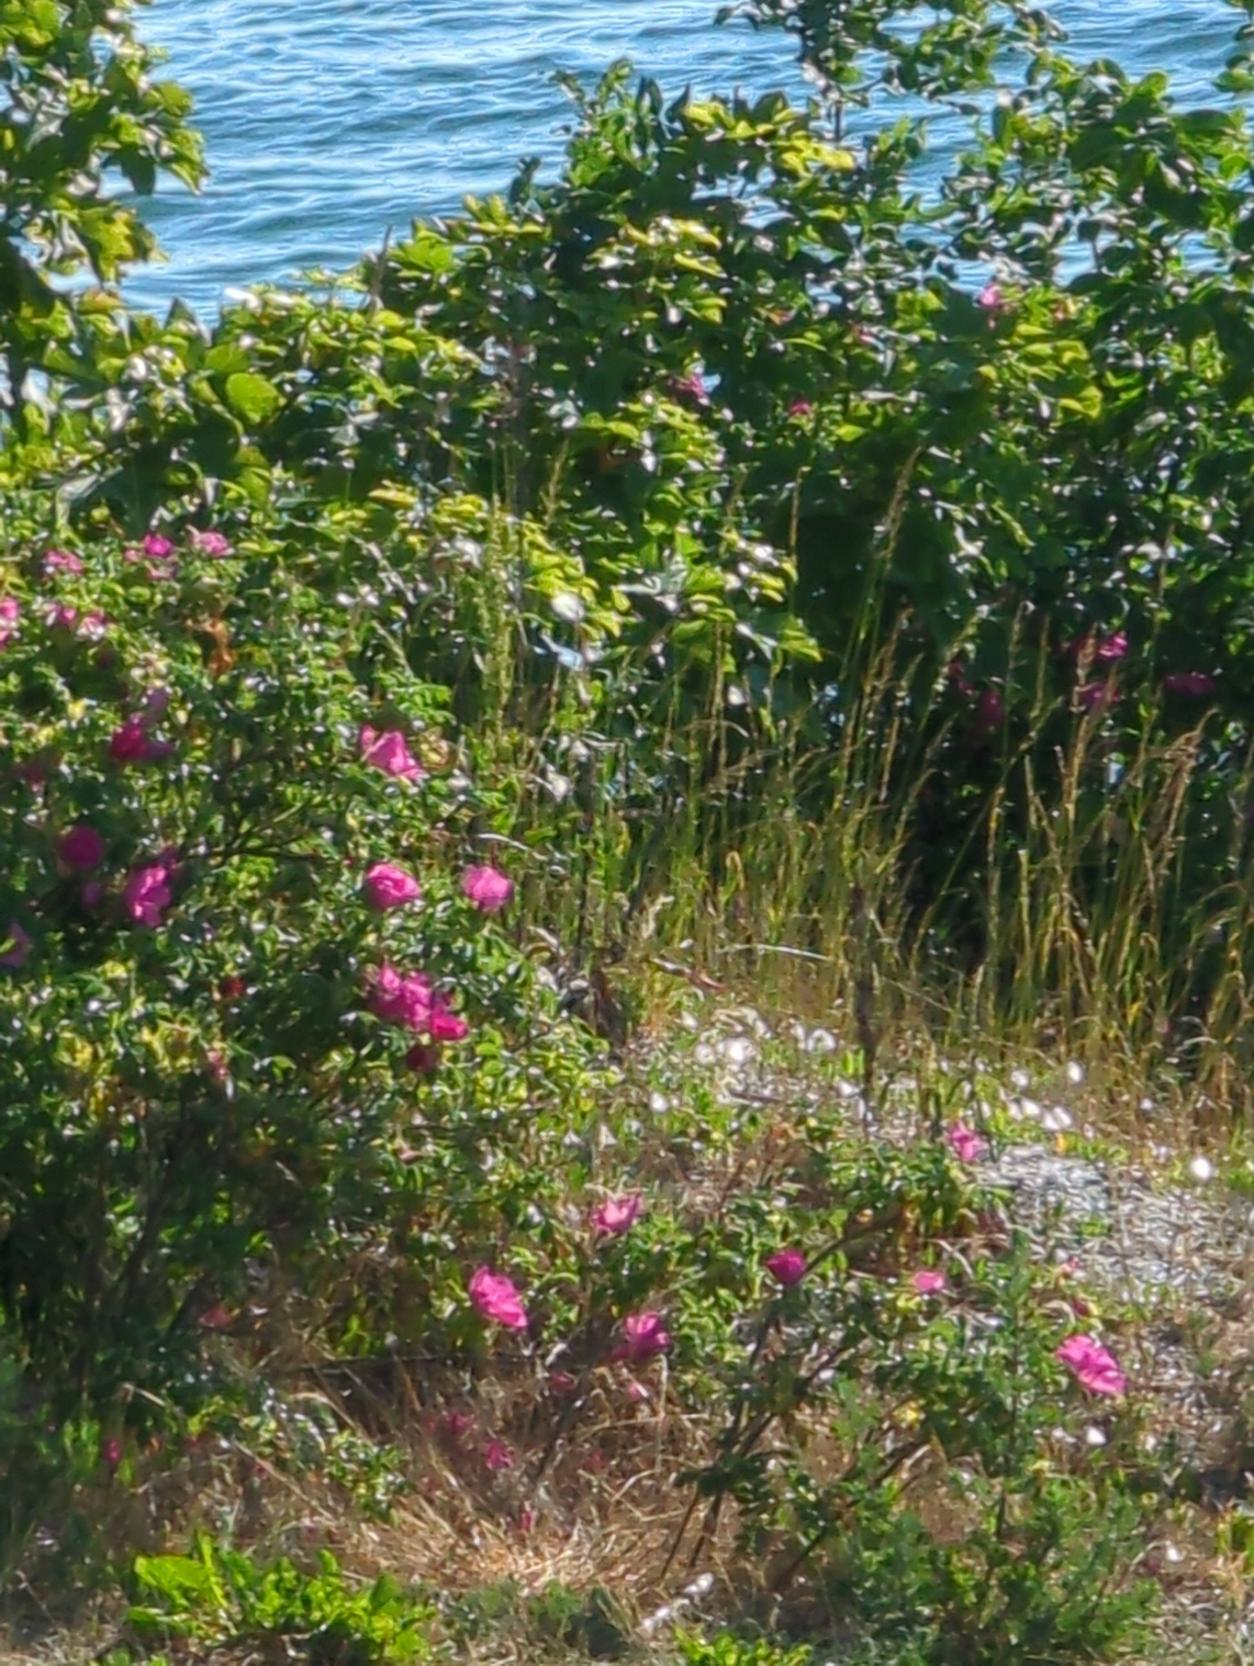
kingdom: Plantae
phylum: Tracheophyta
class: Magnoliopsida
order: Rosales
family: Rosaceae
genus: Rosa
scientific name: Rosa rugosa
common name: Rynket rose
